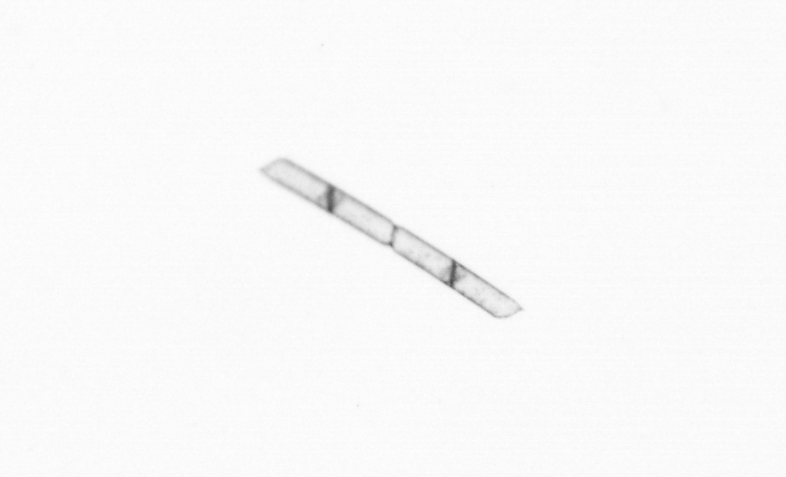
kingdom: Chromista
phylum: Ochrophyta
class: Bacillariophyceae
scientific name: Bacillariophyceae
